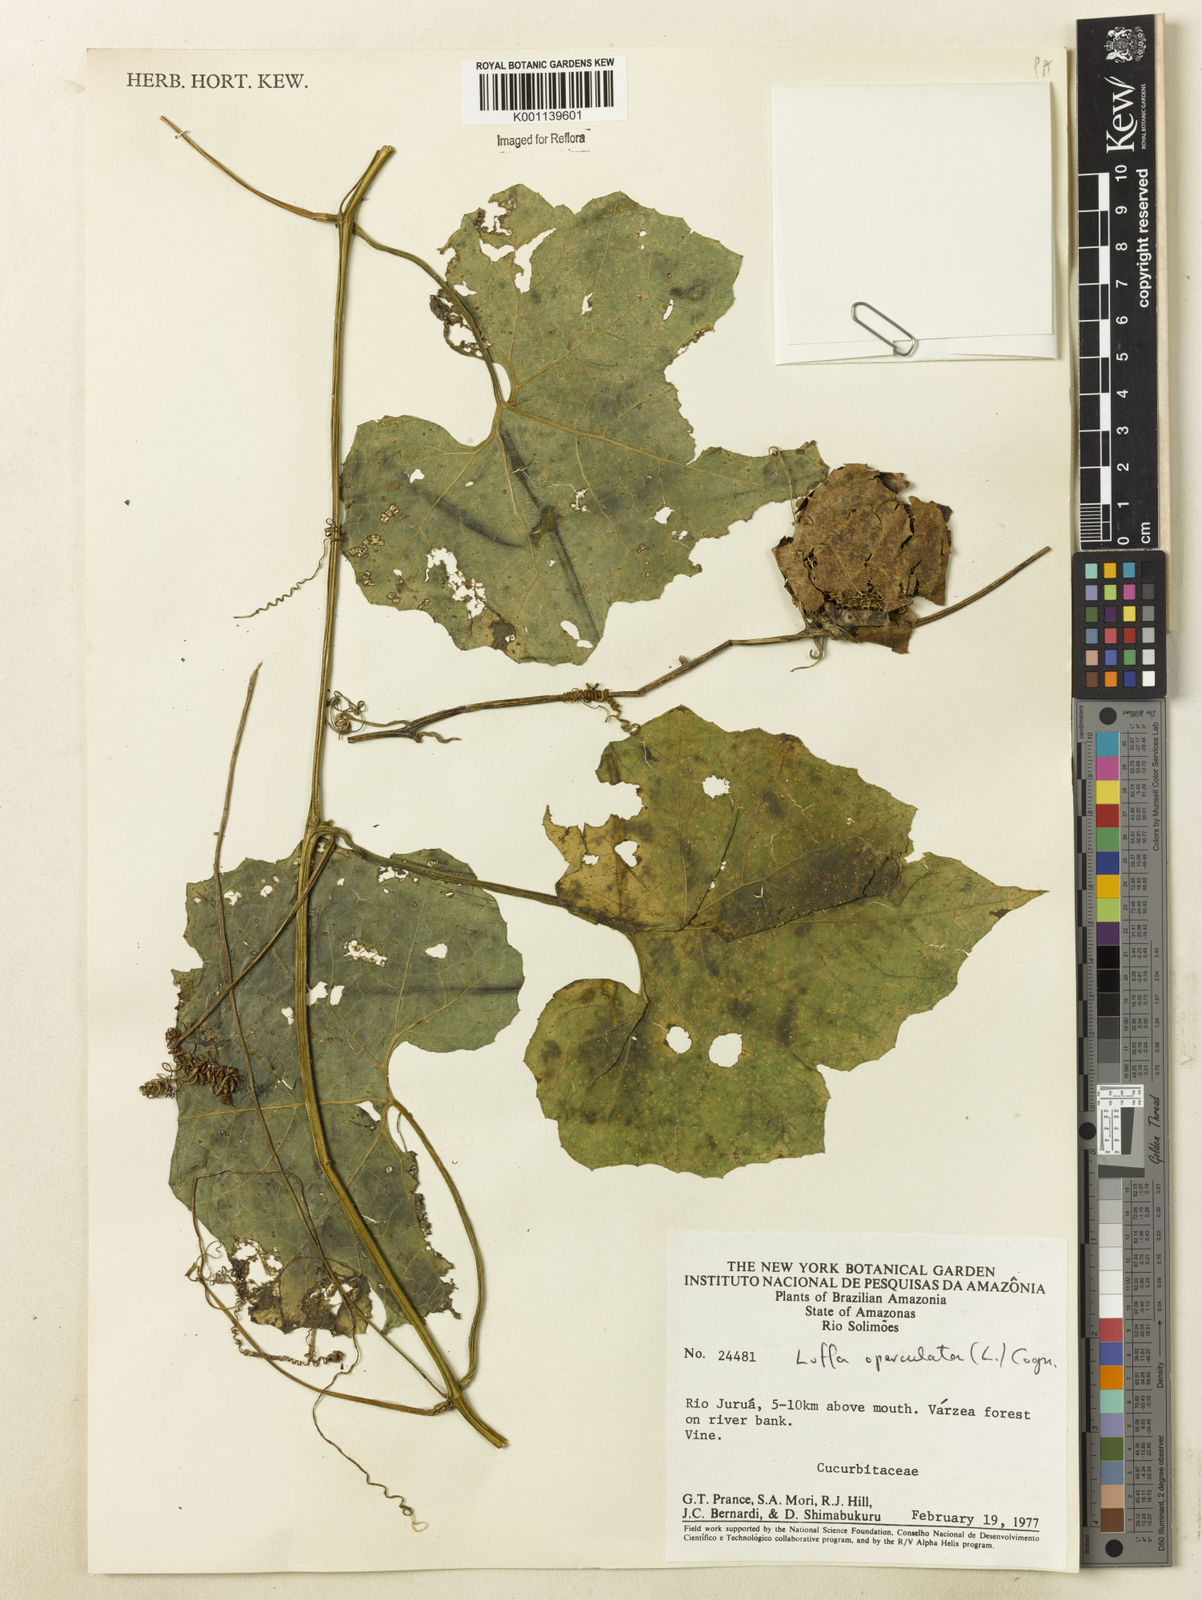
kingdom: Plantae
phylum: Tracheophyta
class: Magnoliopsida
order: Cucurbitales
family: Cucurbitaceae
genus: Luffa
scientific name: Luffa operculata
